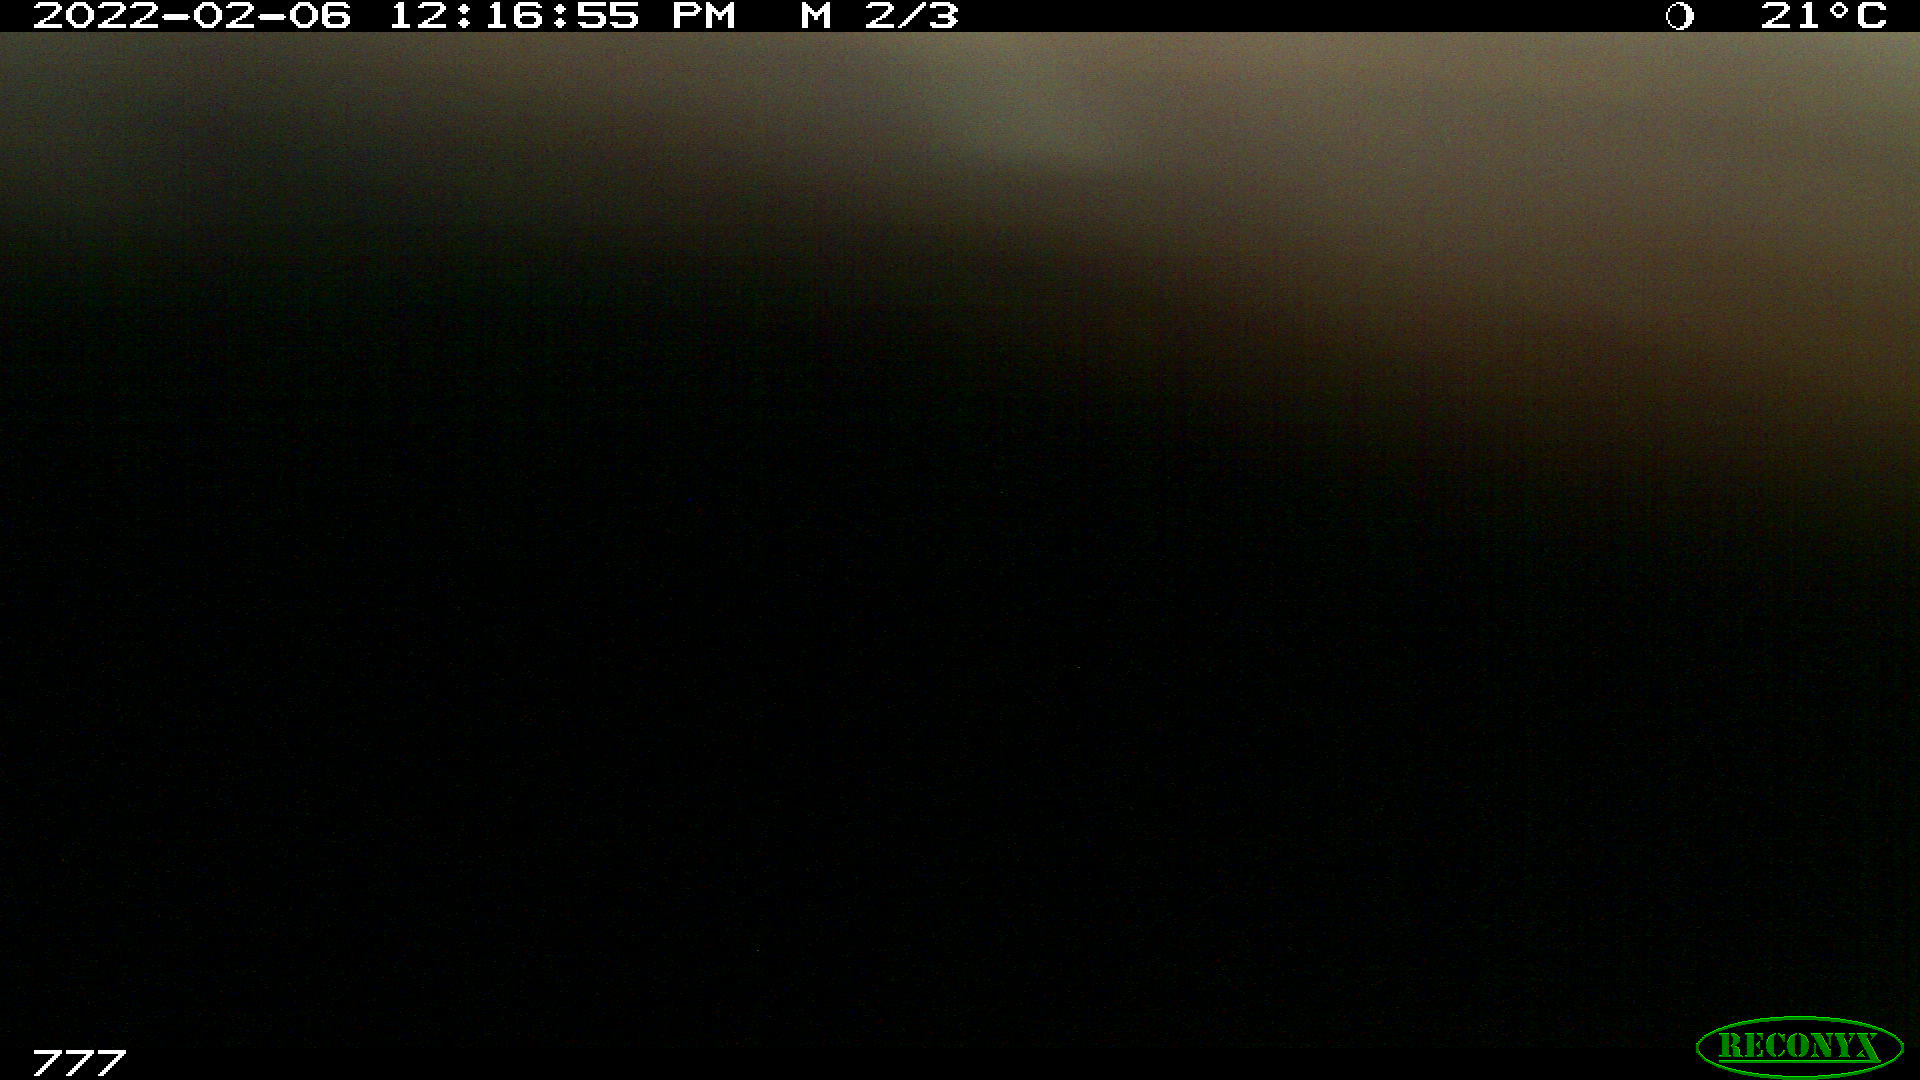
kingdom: Animalia
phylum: Chordata
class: Mammalia
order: Perissodactyla
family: Equidae
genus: Equus
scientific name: Equus caballus
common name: Horse
